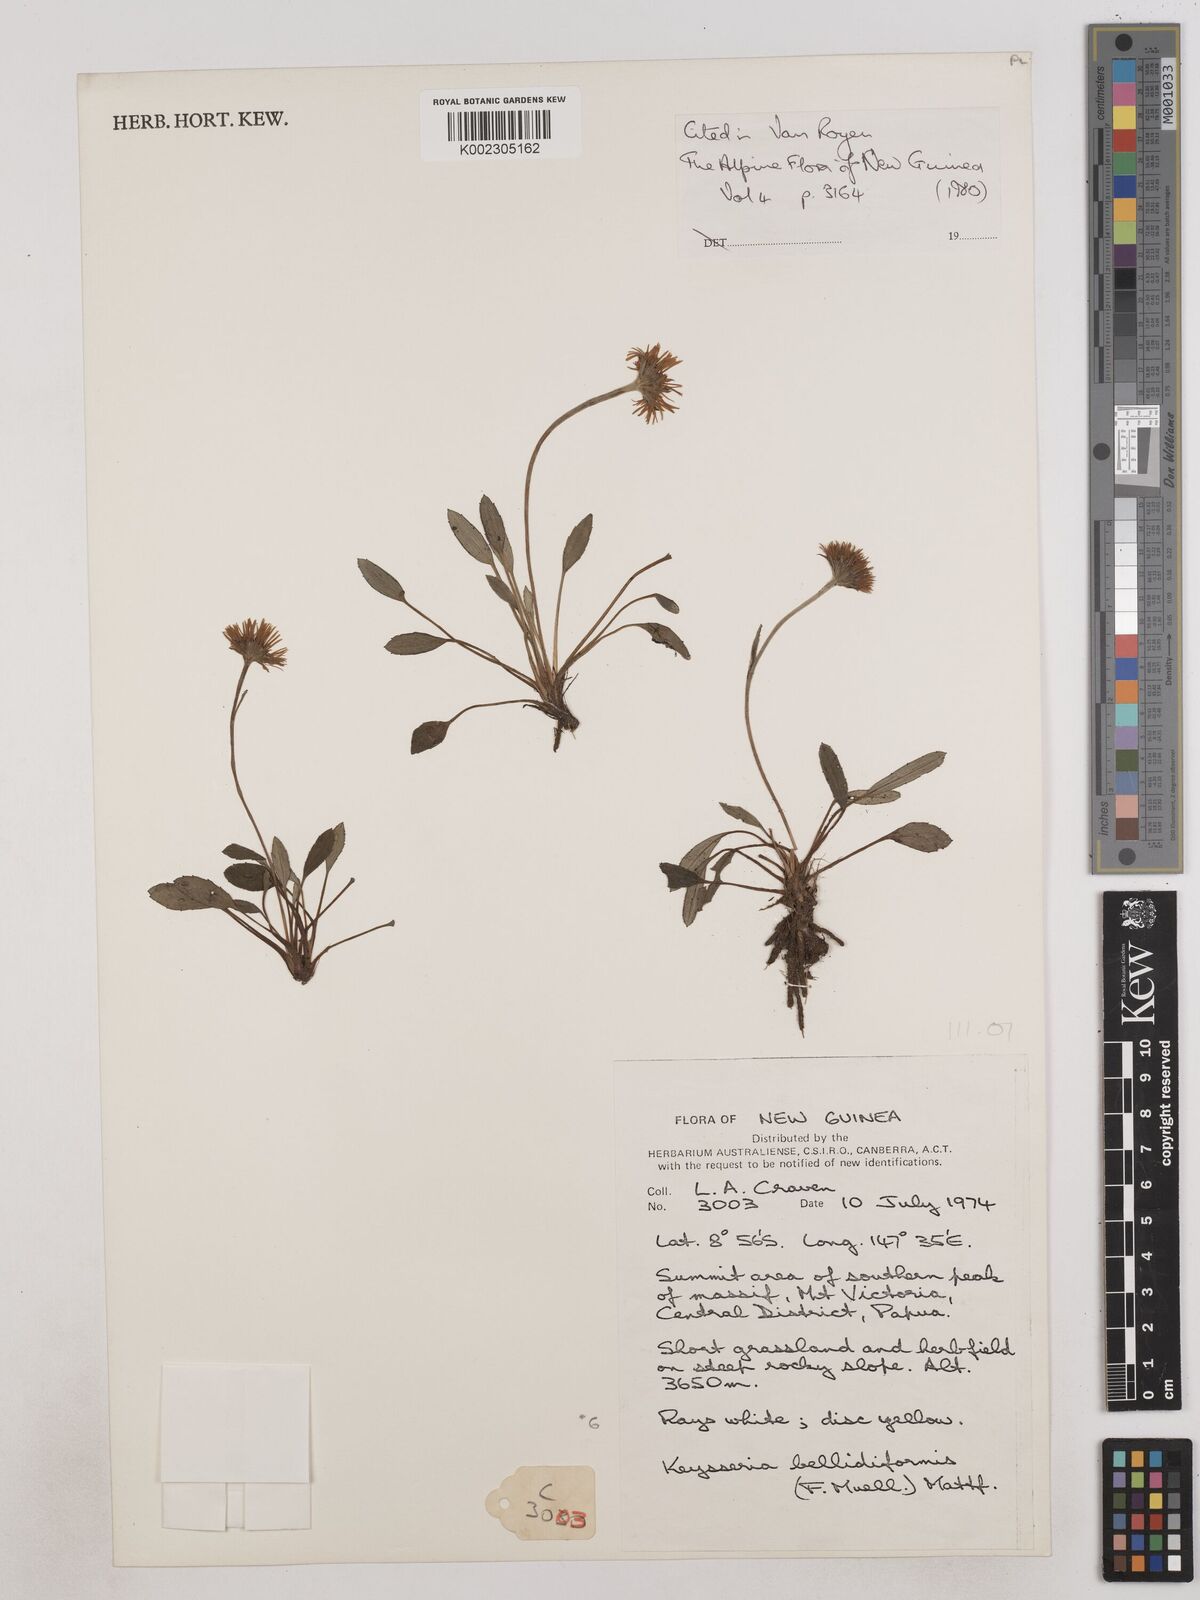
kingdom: Plantae
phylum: Tracheophyta
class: Magnoliopsida
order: Asterales
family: Asteraceae
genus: Keysseria
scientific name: Keysseria bellidiformis
